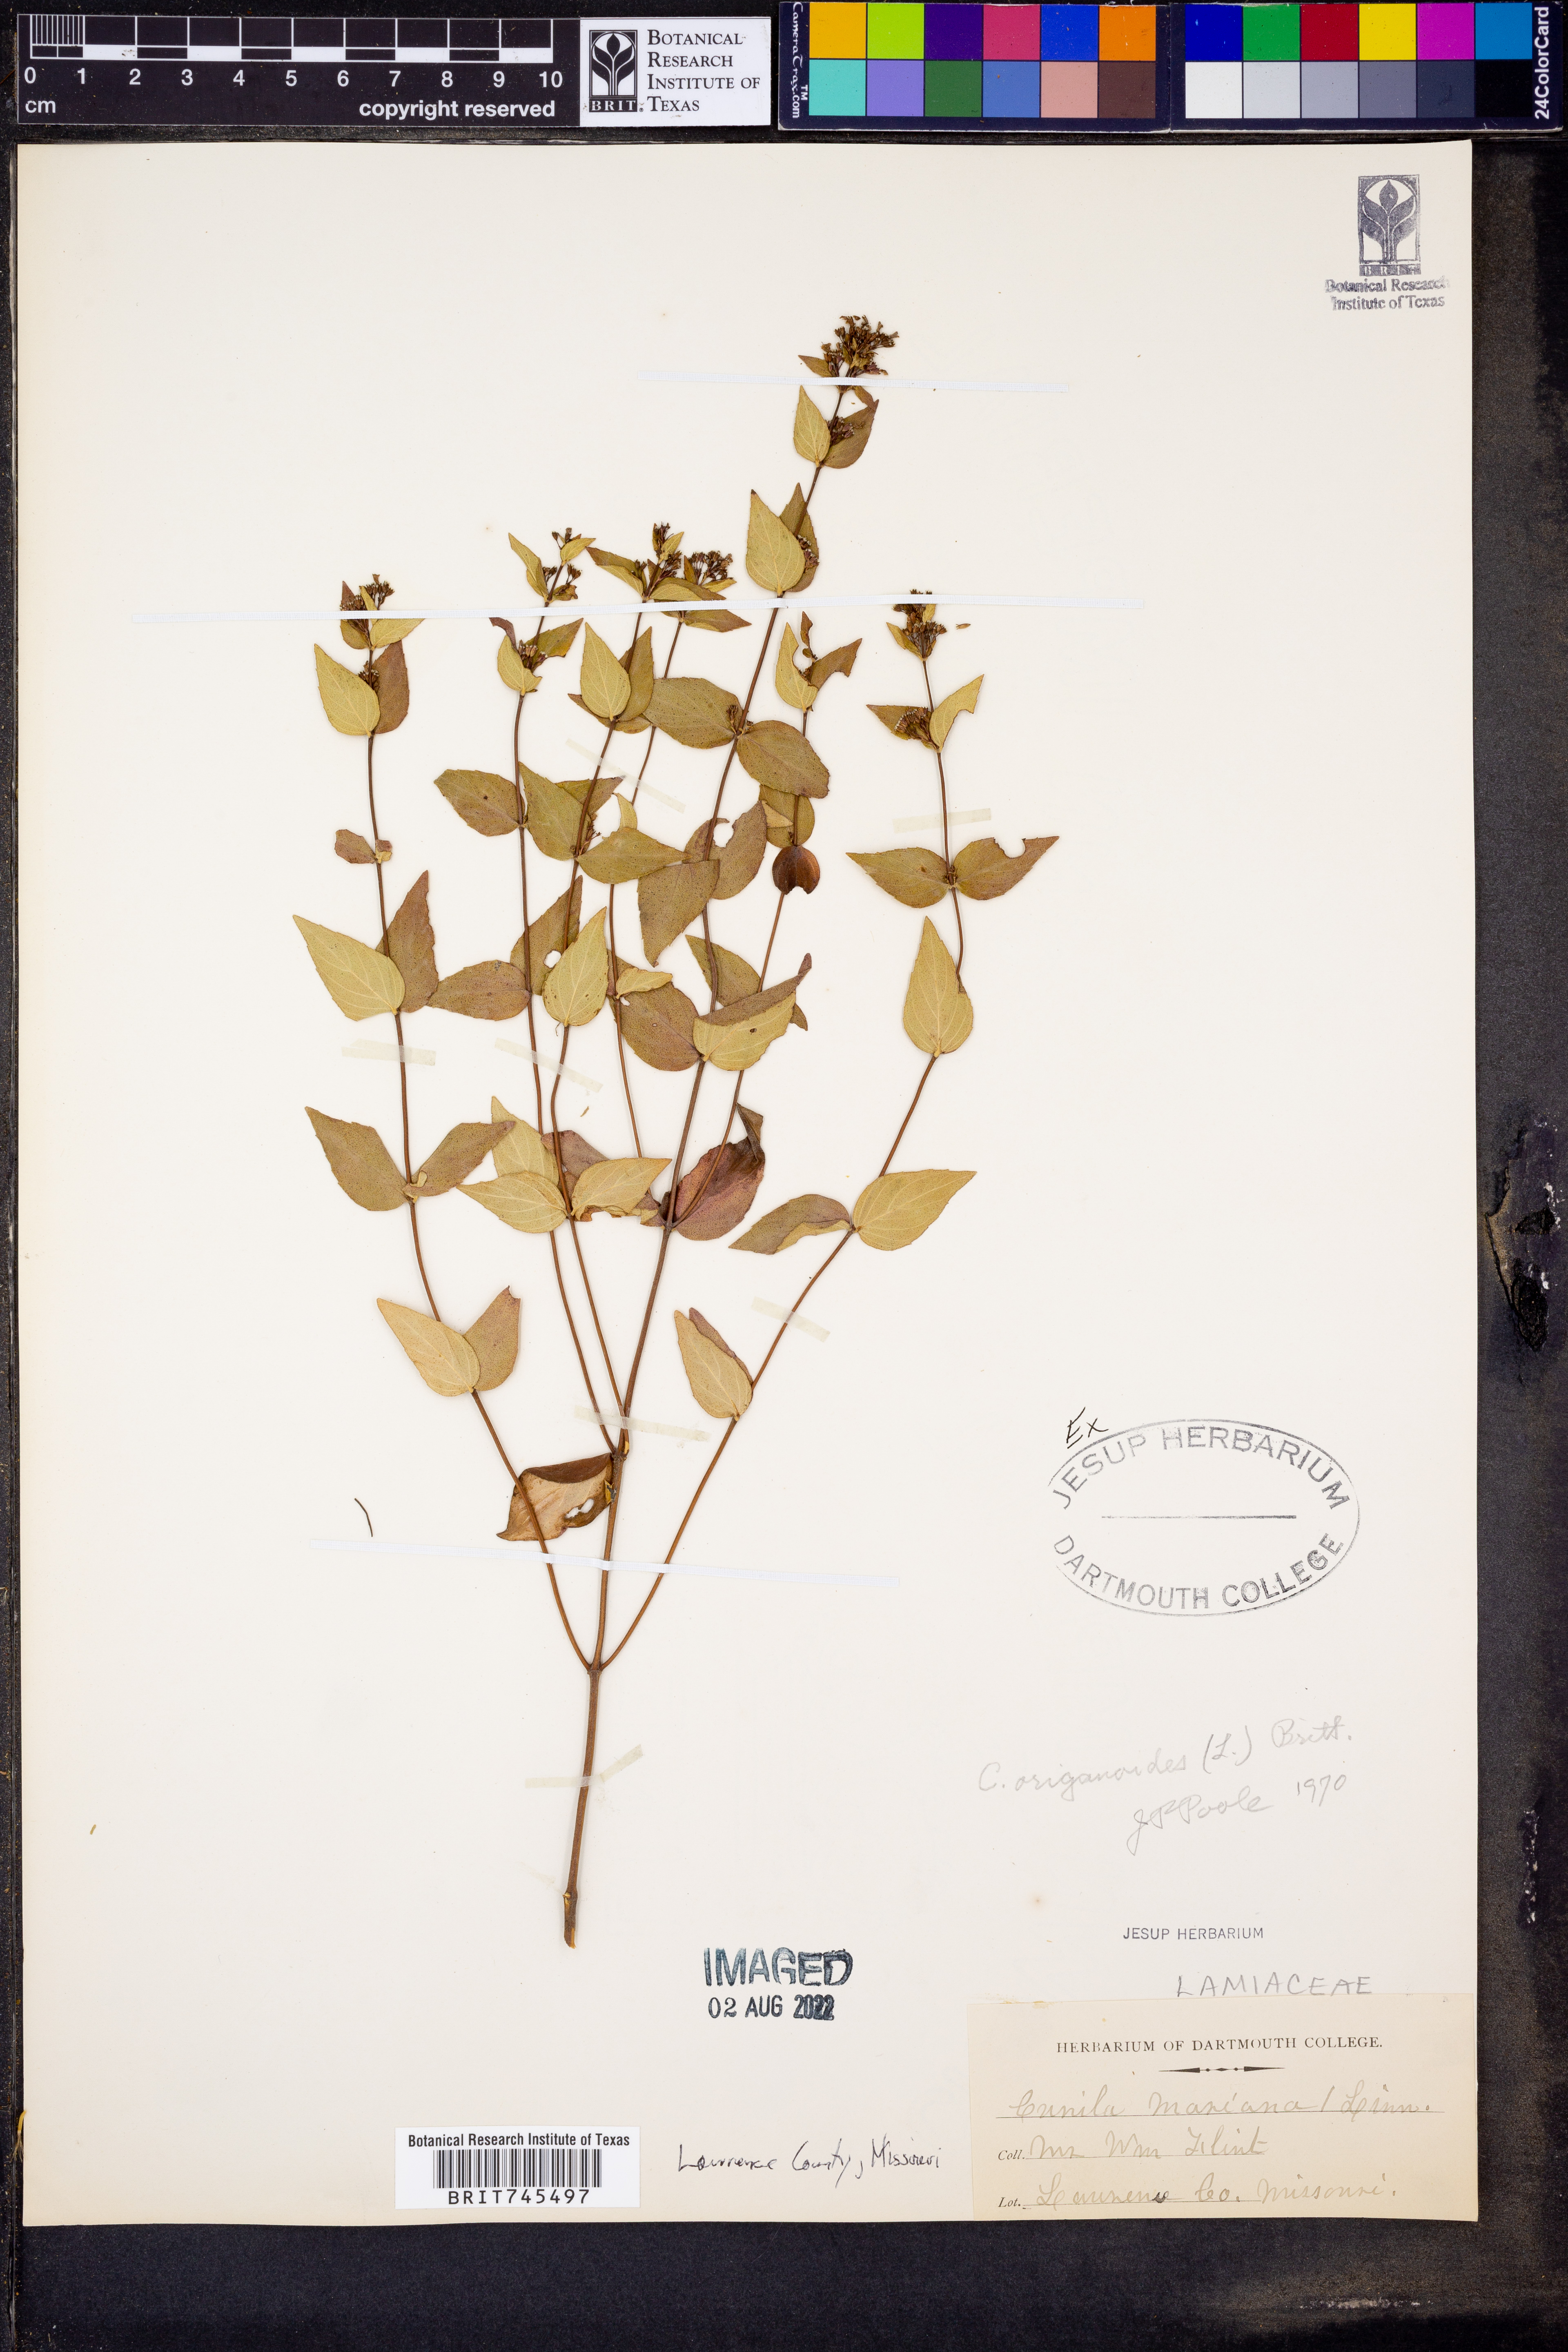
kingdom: Plantae
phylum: Tracheophyta
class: Magnoliopsida
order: Lamiales
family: Lamiaceae
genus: Cunila
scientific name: Cunila origanoides
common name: American dittany
